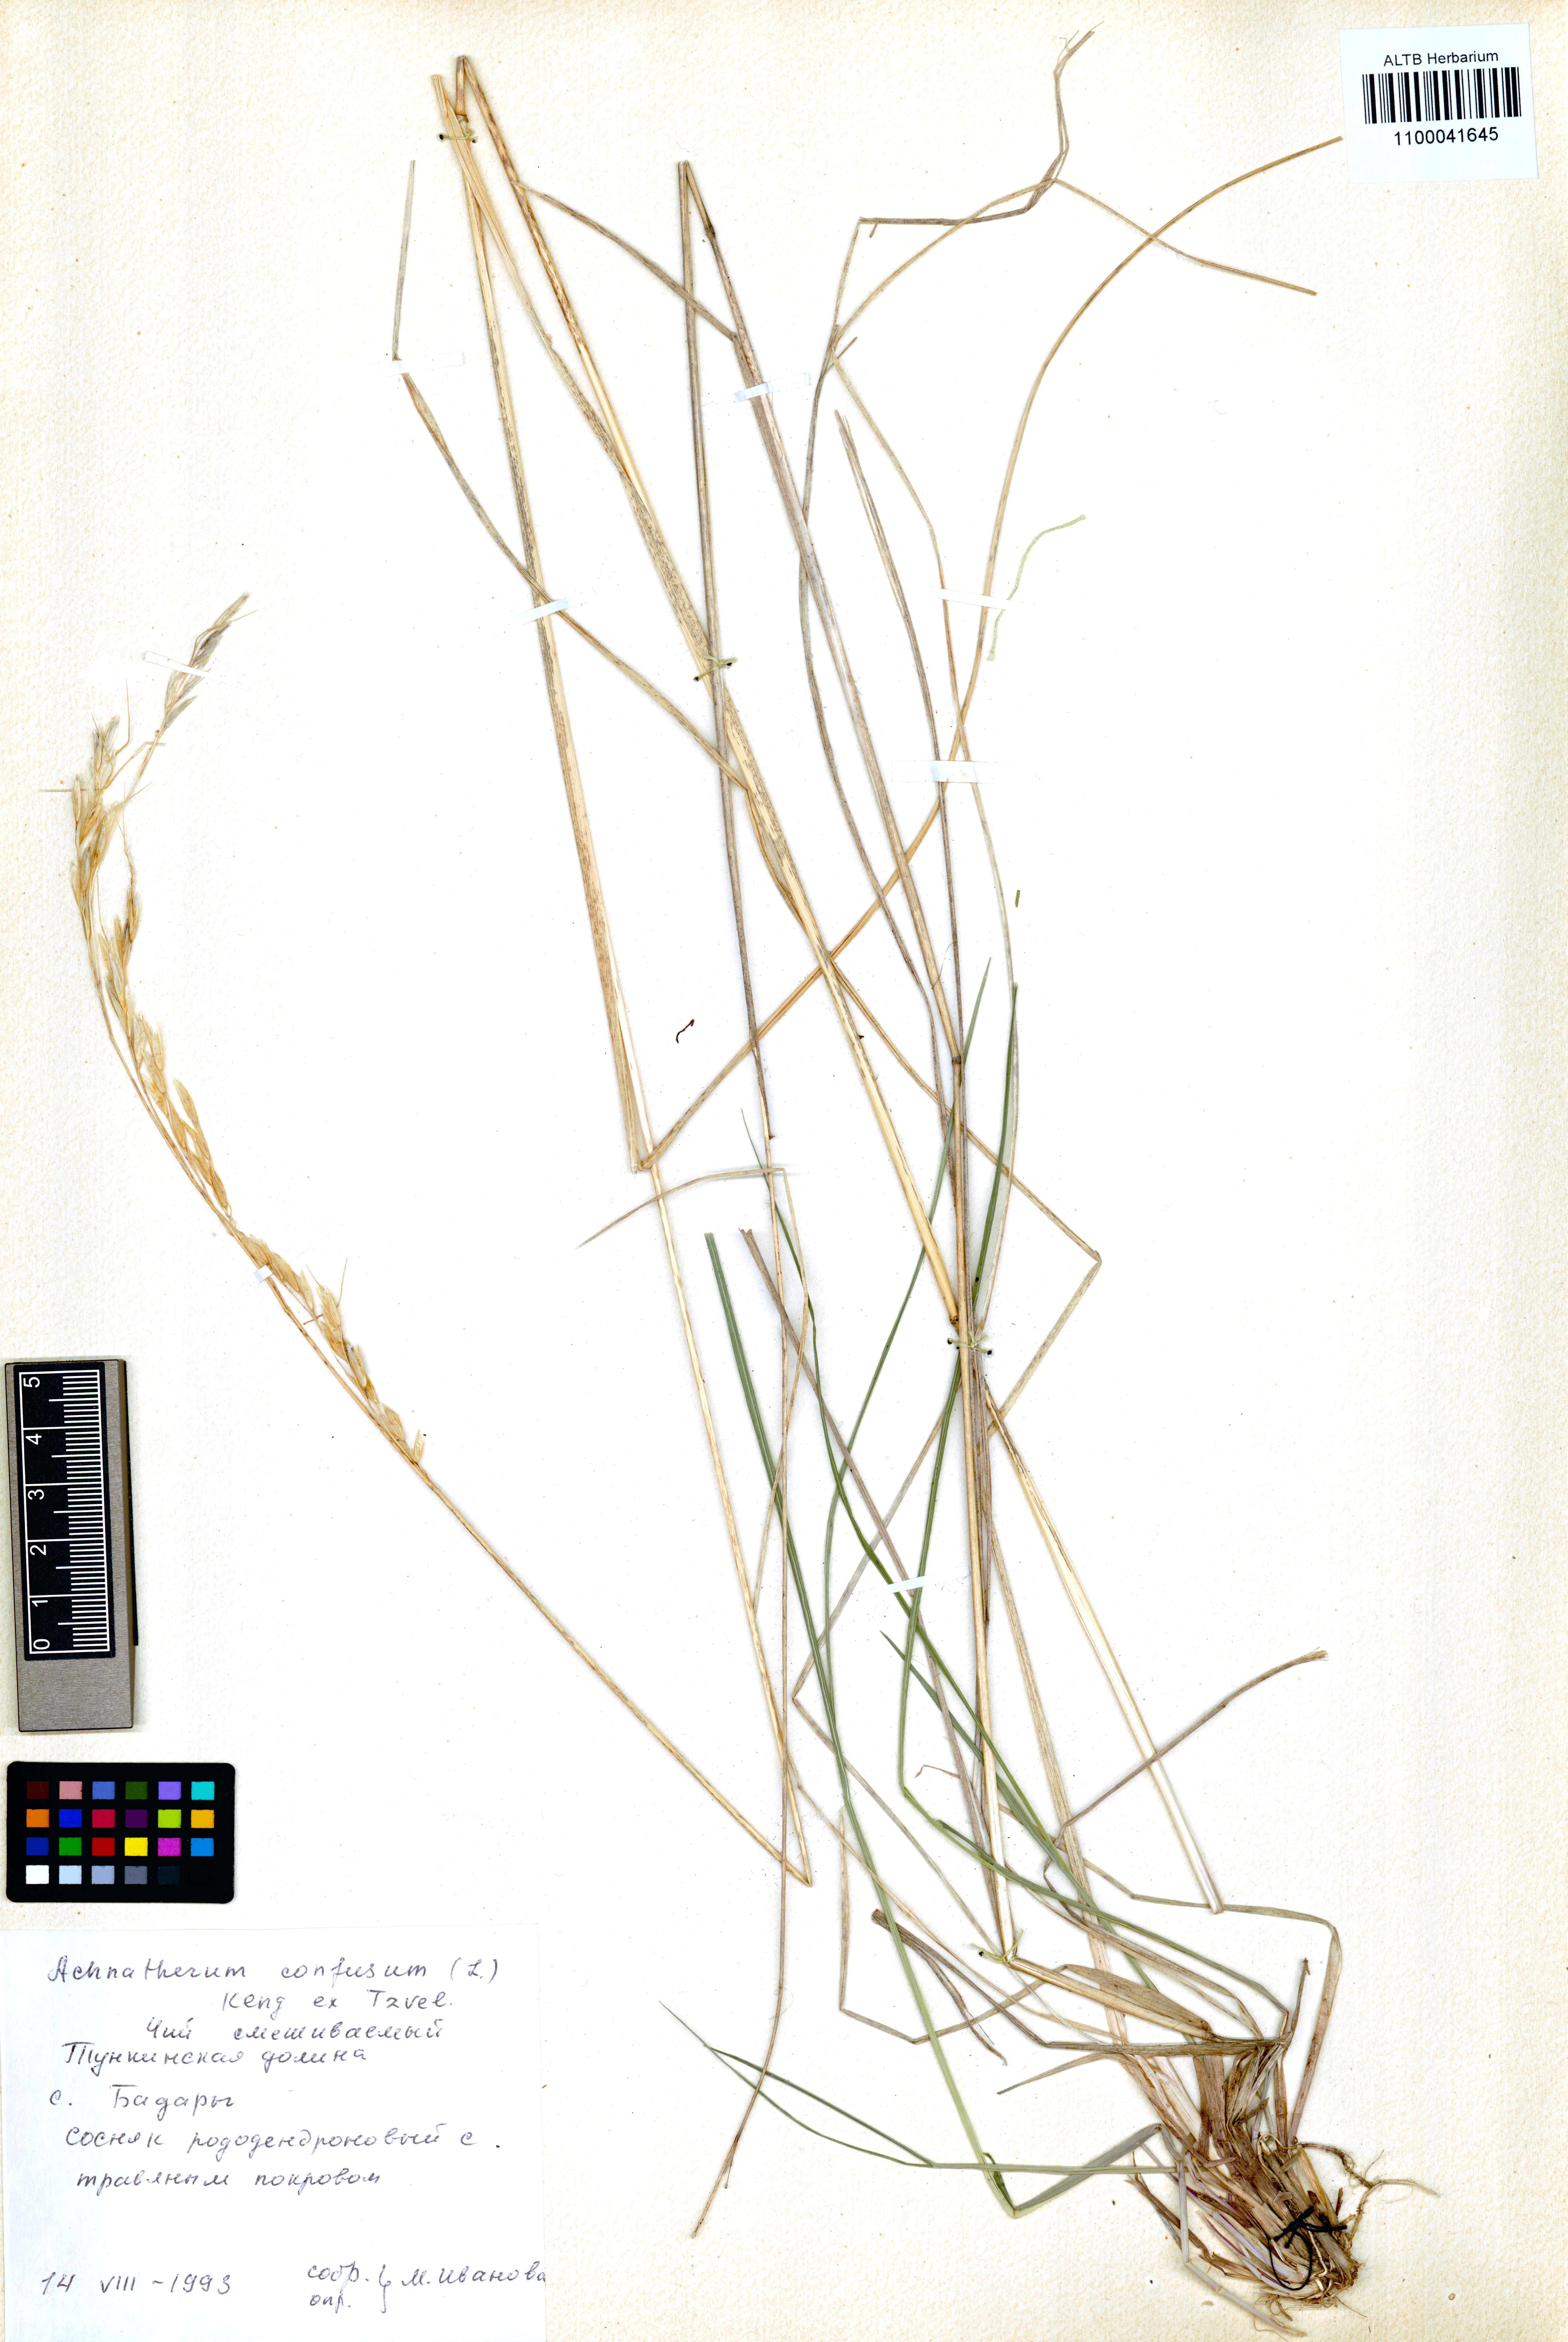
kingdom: Plantae
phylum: Tracheophyta
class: Liliopsida
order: Poales
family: Poaceae
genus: Achnatherum
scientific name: Achnatherum confusum
